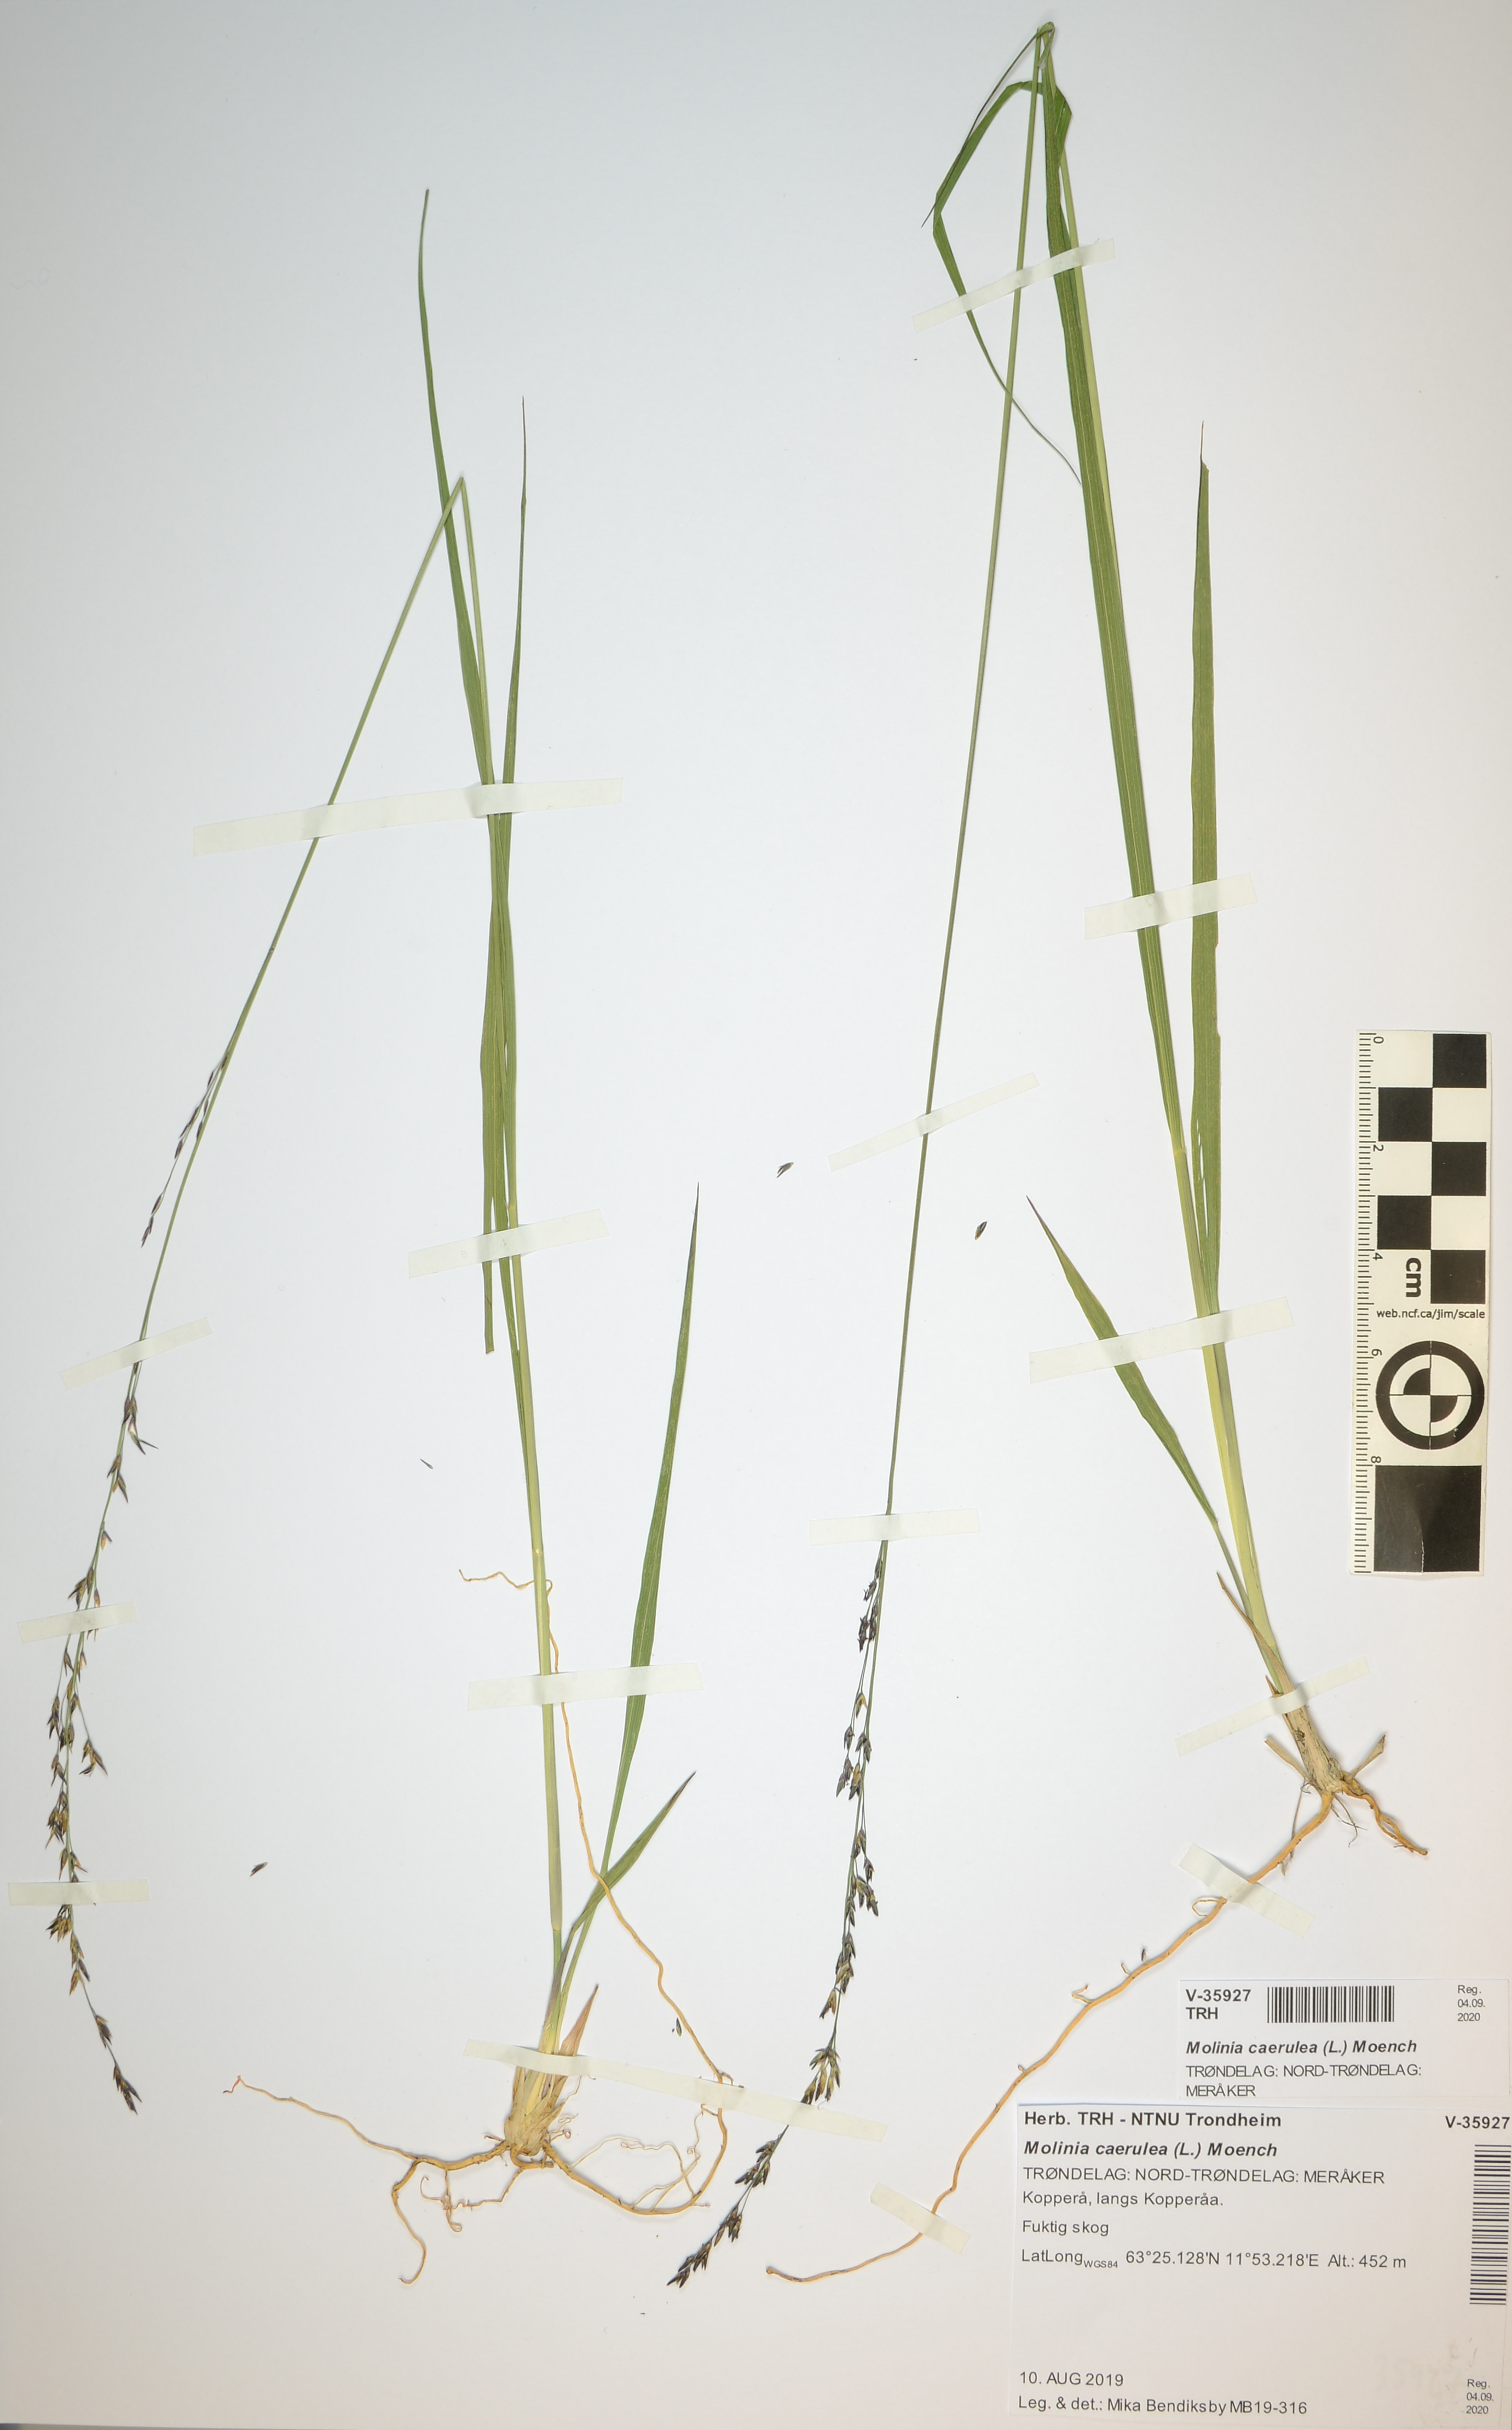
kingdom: Plantae
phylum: Tracheophyta
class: Liliopsida
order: Poales
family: Poaceae
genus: Molinia
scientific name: Molinia caerulea
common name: Purple moor-grass
